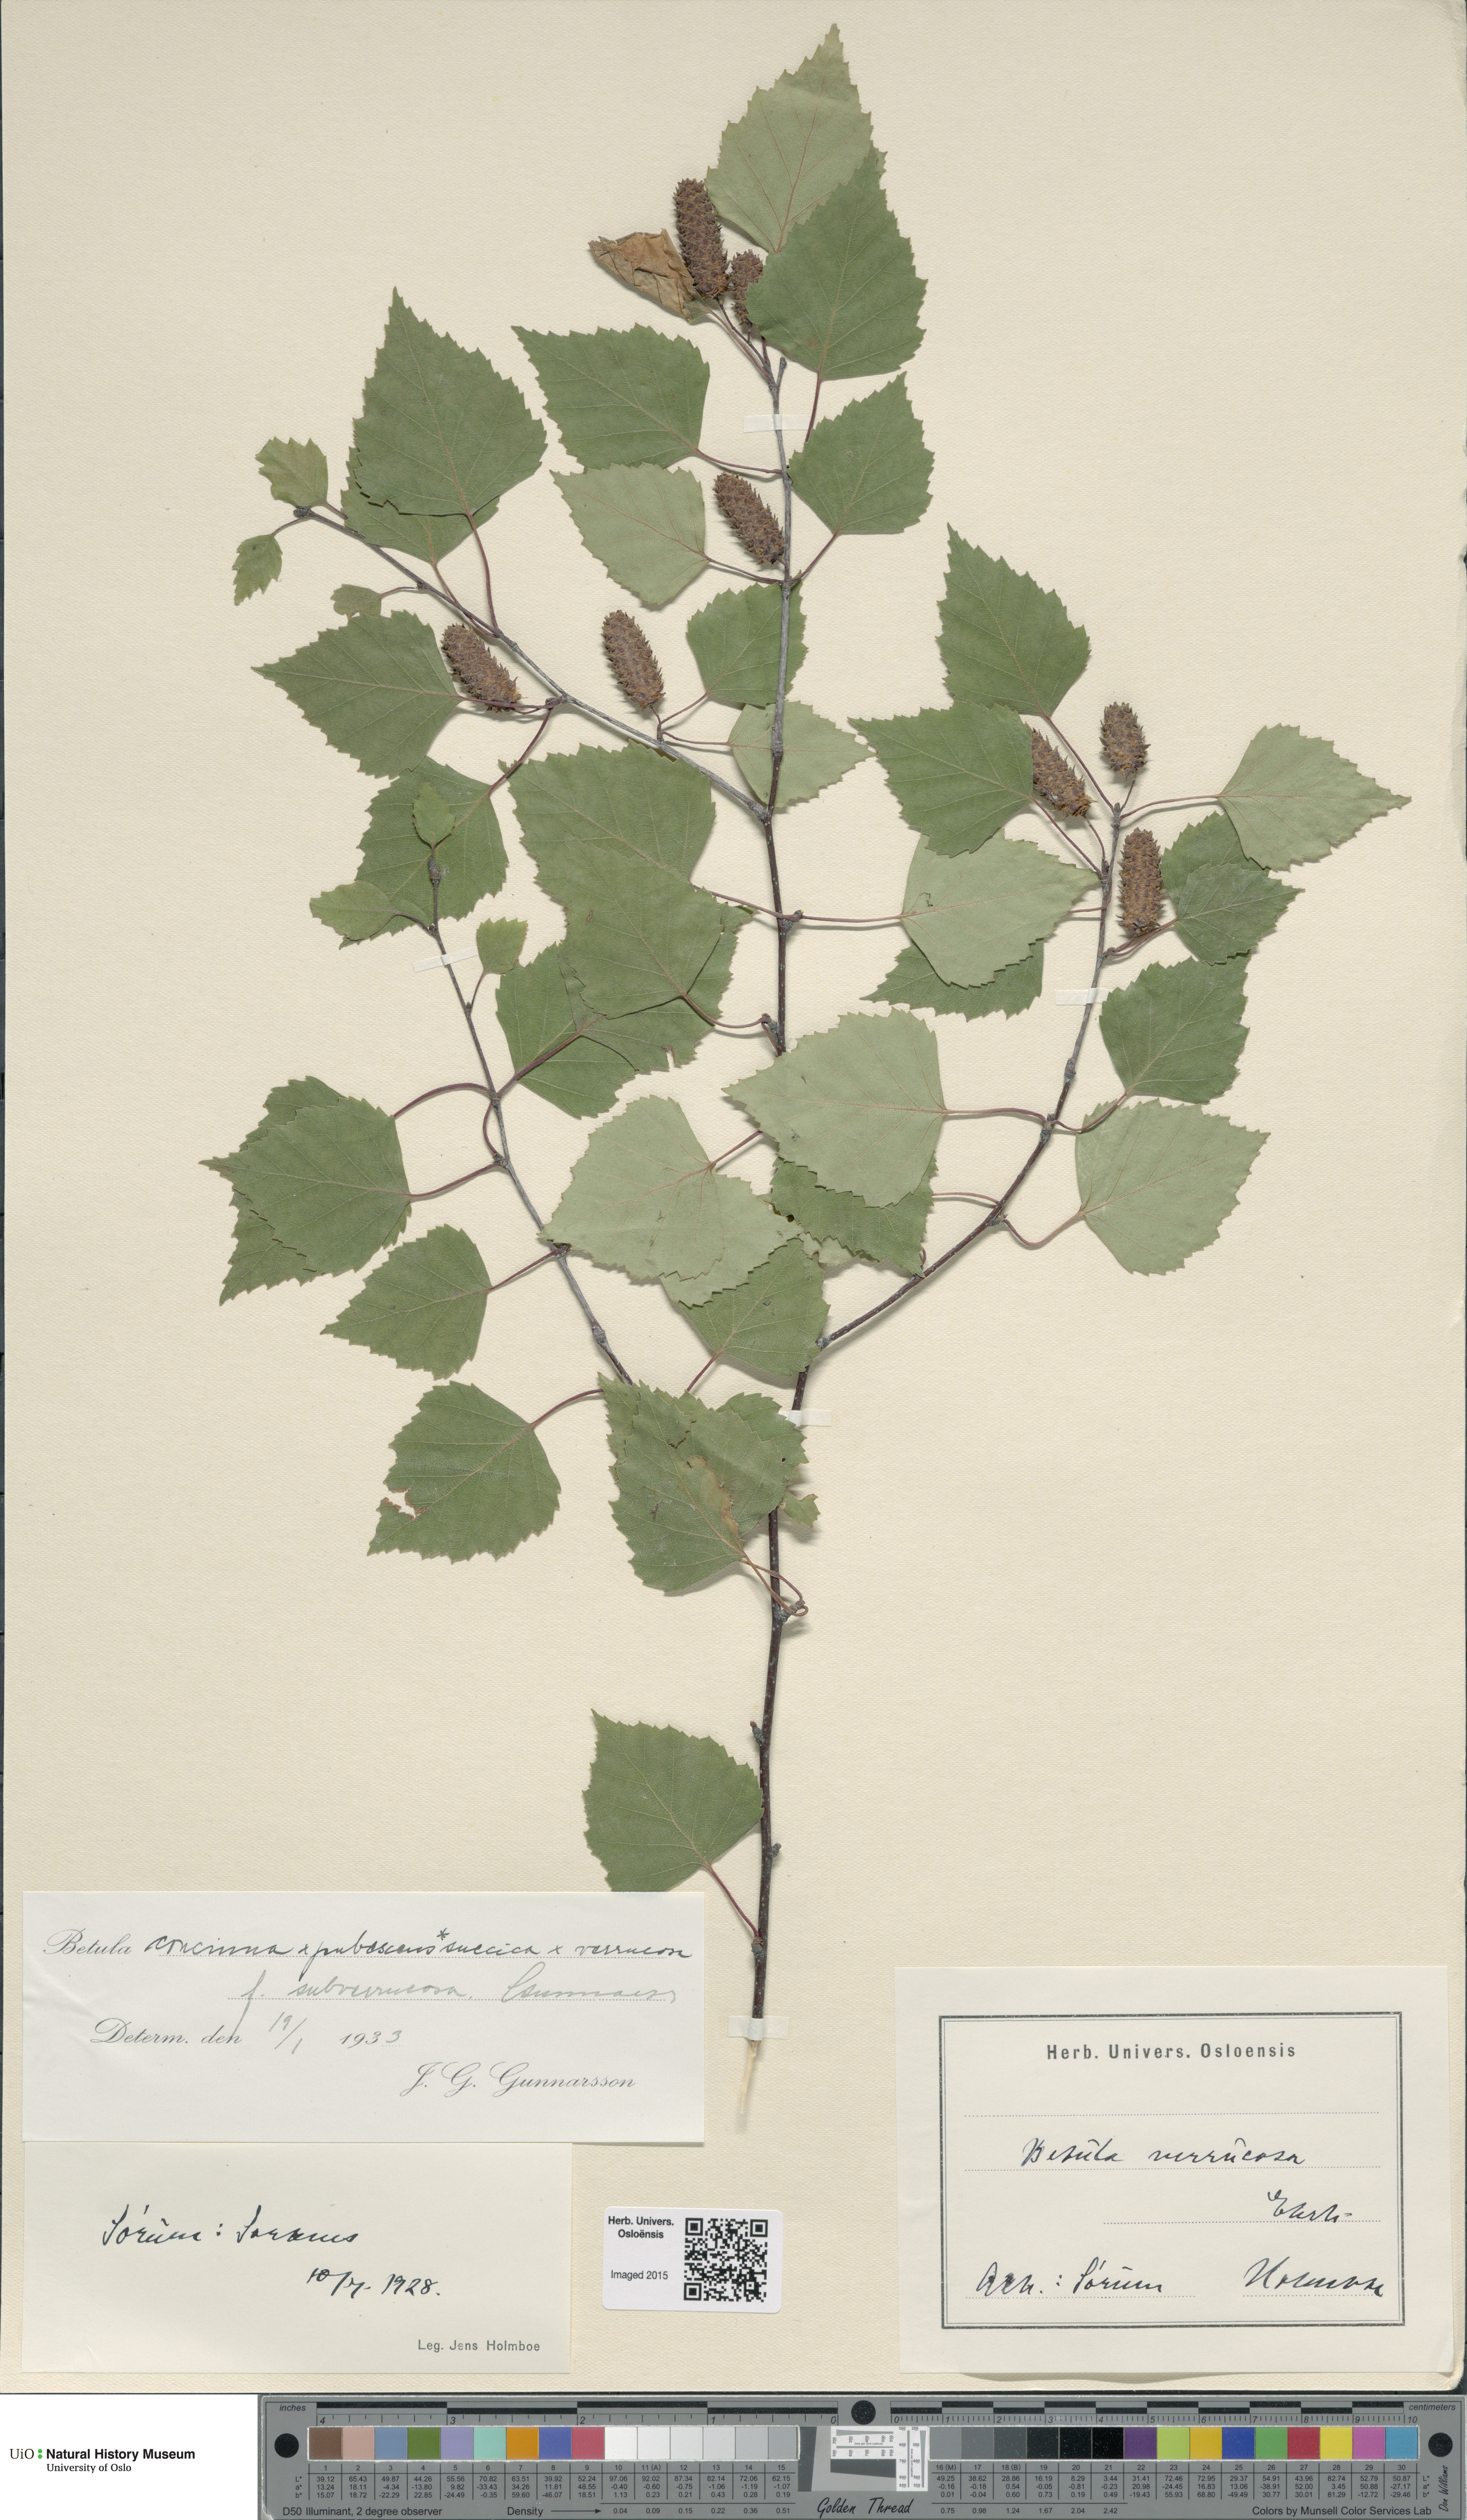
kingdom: Plantae
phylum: Tracheophyta
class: Magnoliopsida
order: Fagales
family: Betulaceae
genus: Betula
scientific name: Betula pubescens
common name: Downy birch
